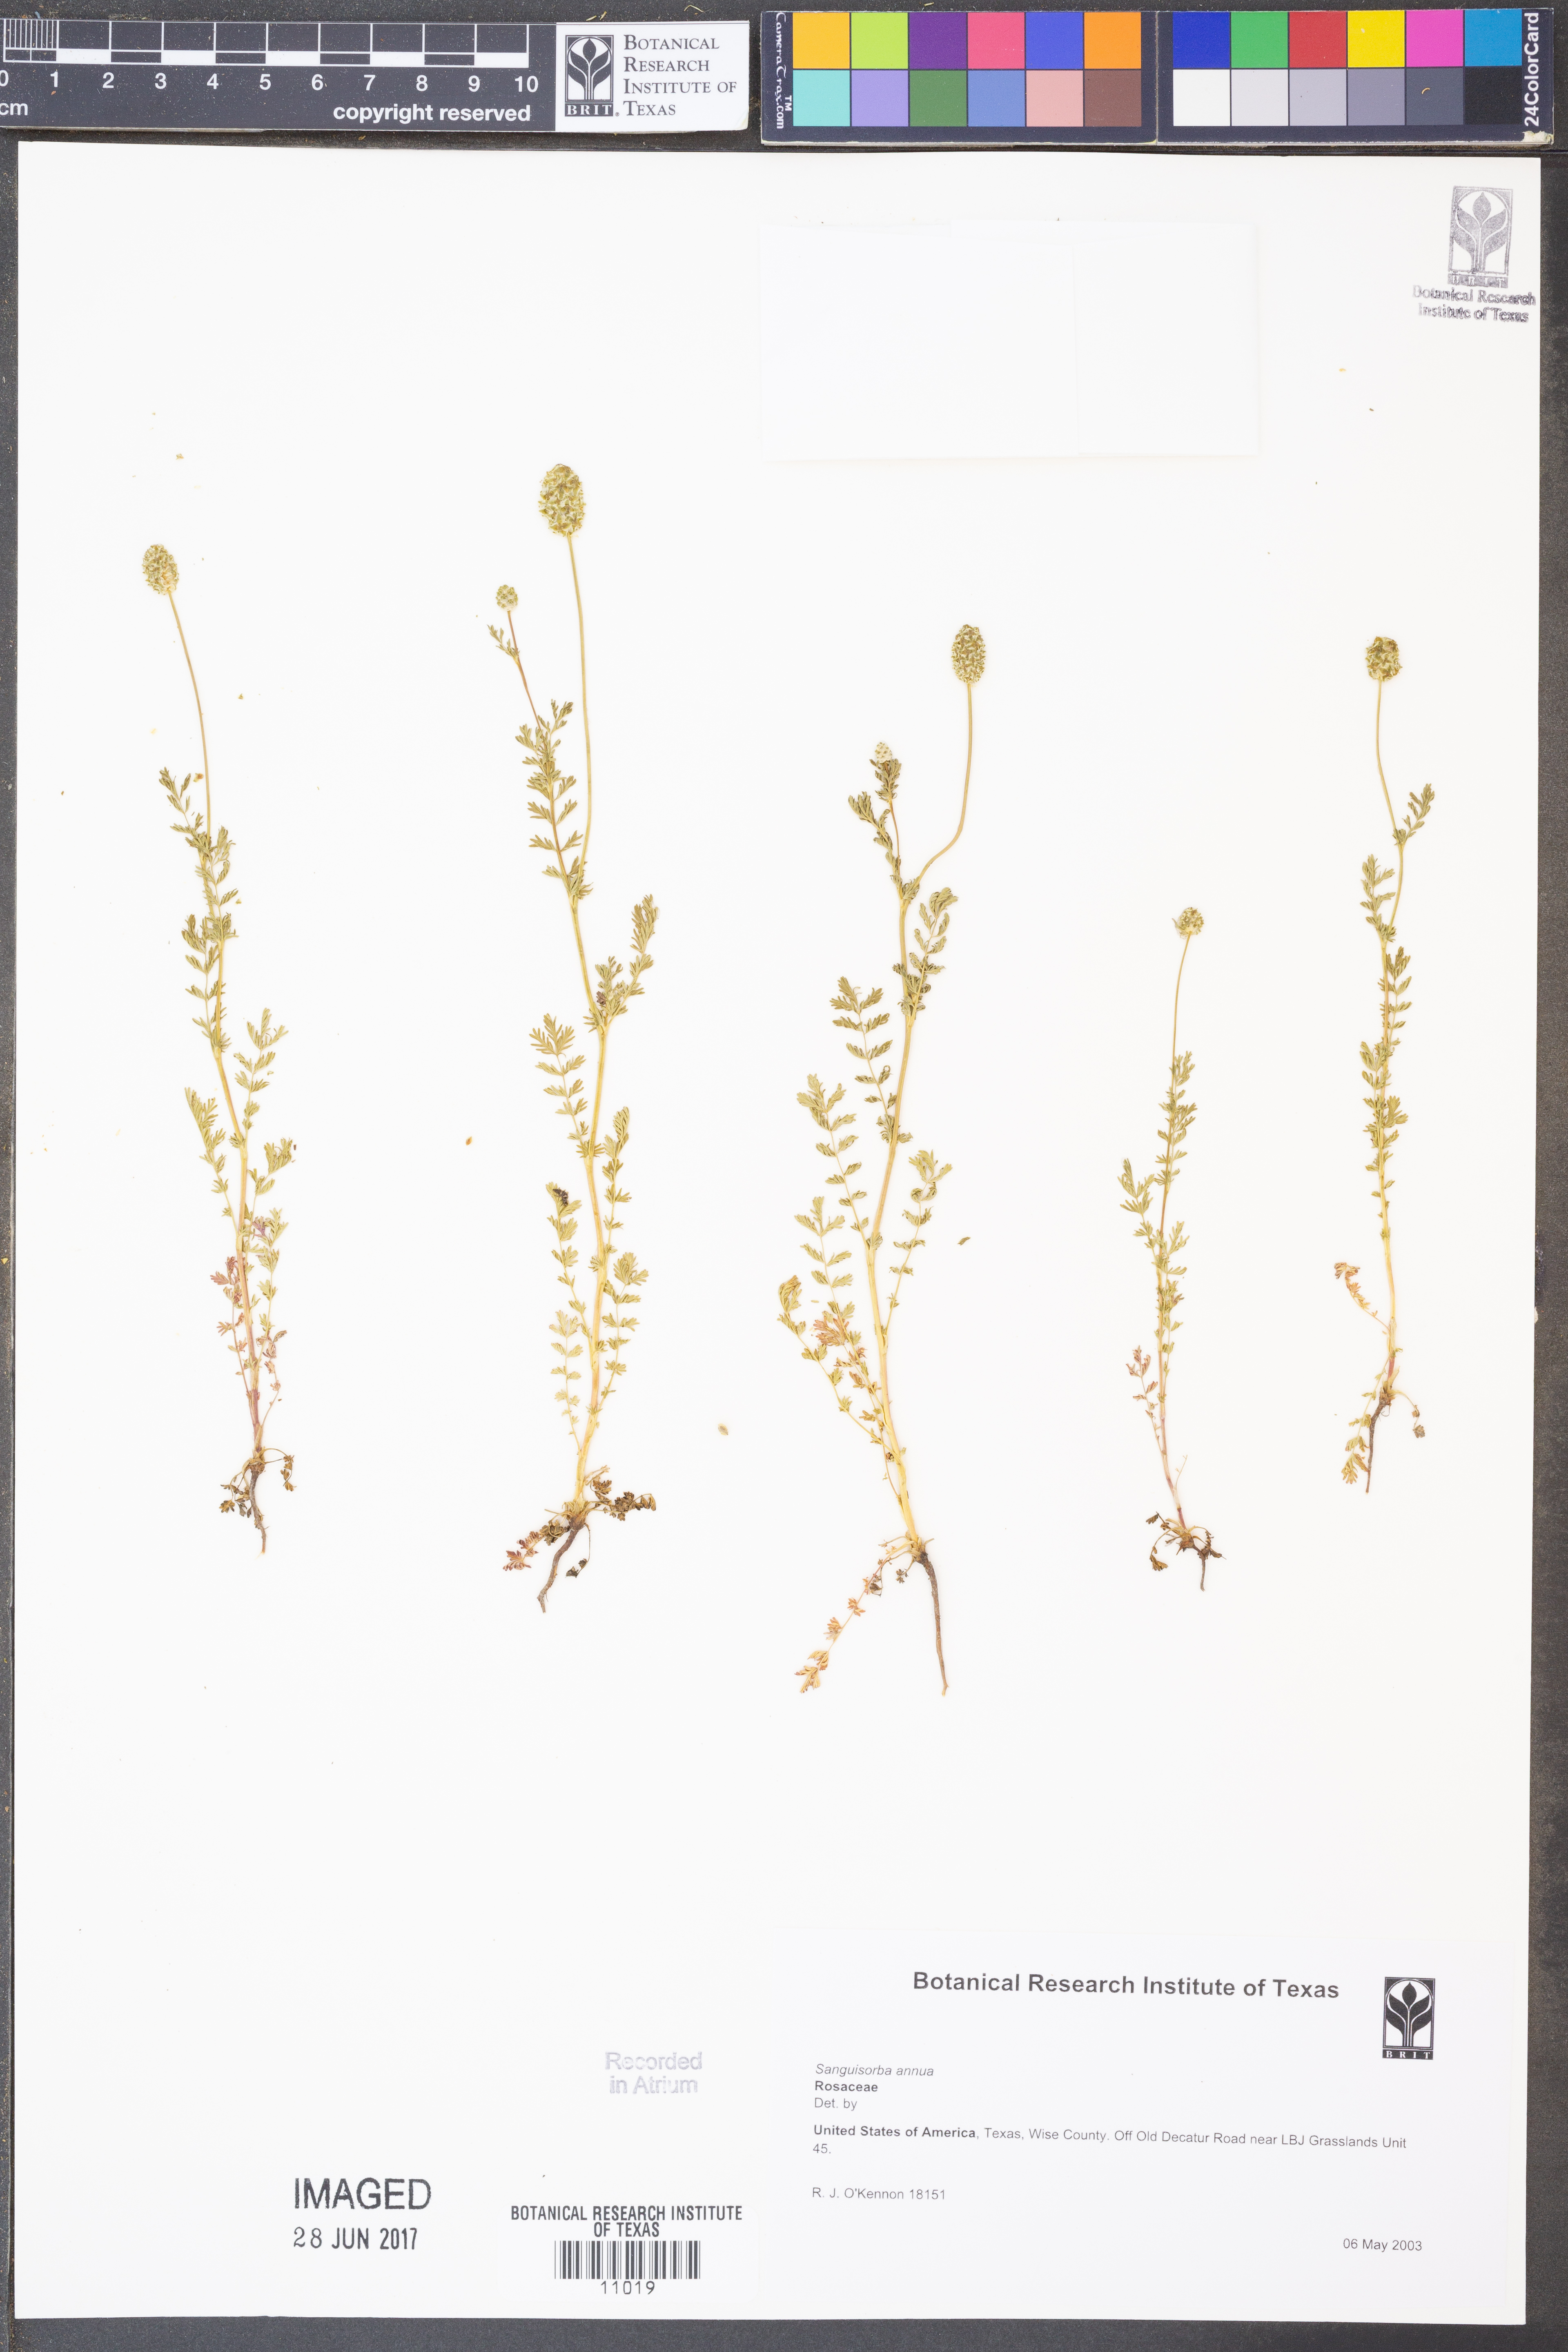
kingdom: Plantae
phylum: Tracheophyta
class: Magnoliopsida
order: Rosales
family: Rosaceae
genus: Poteridium
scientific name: Poteridium annuum
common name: Annual burnet
